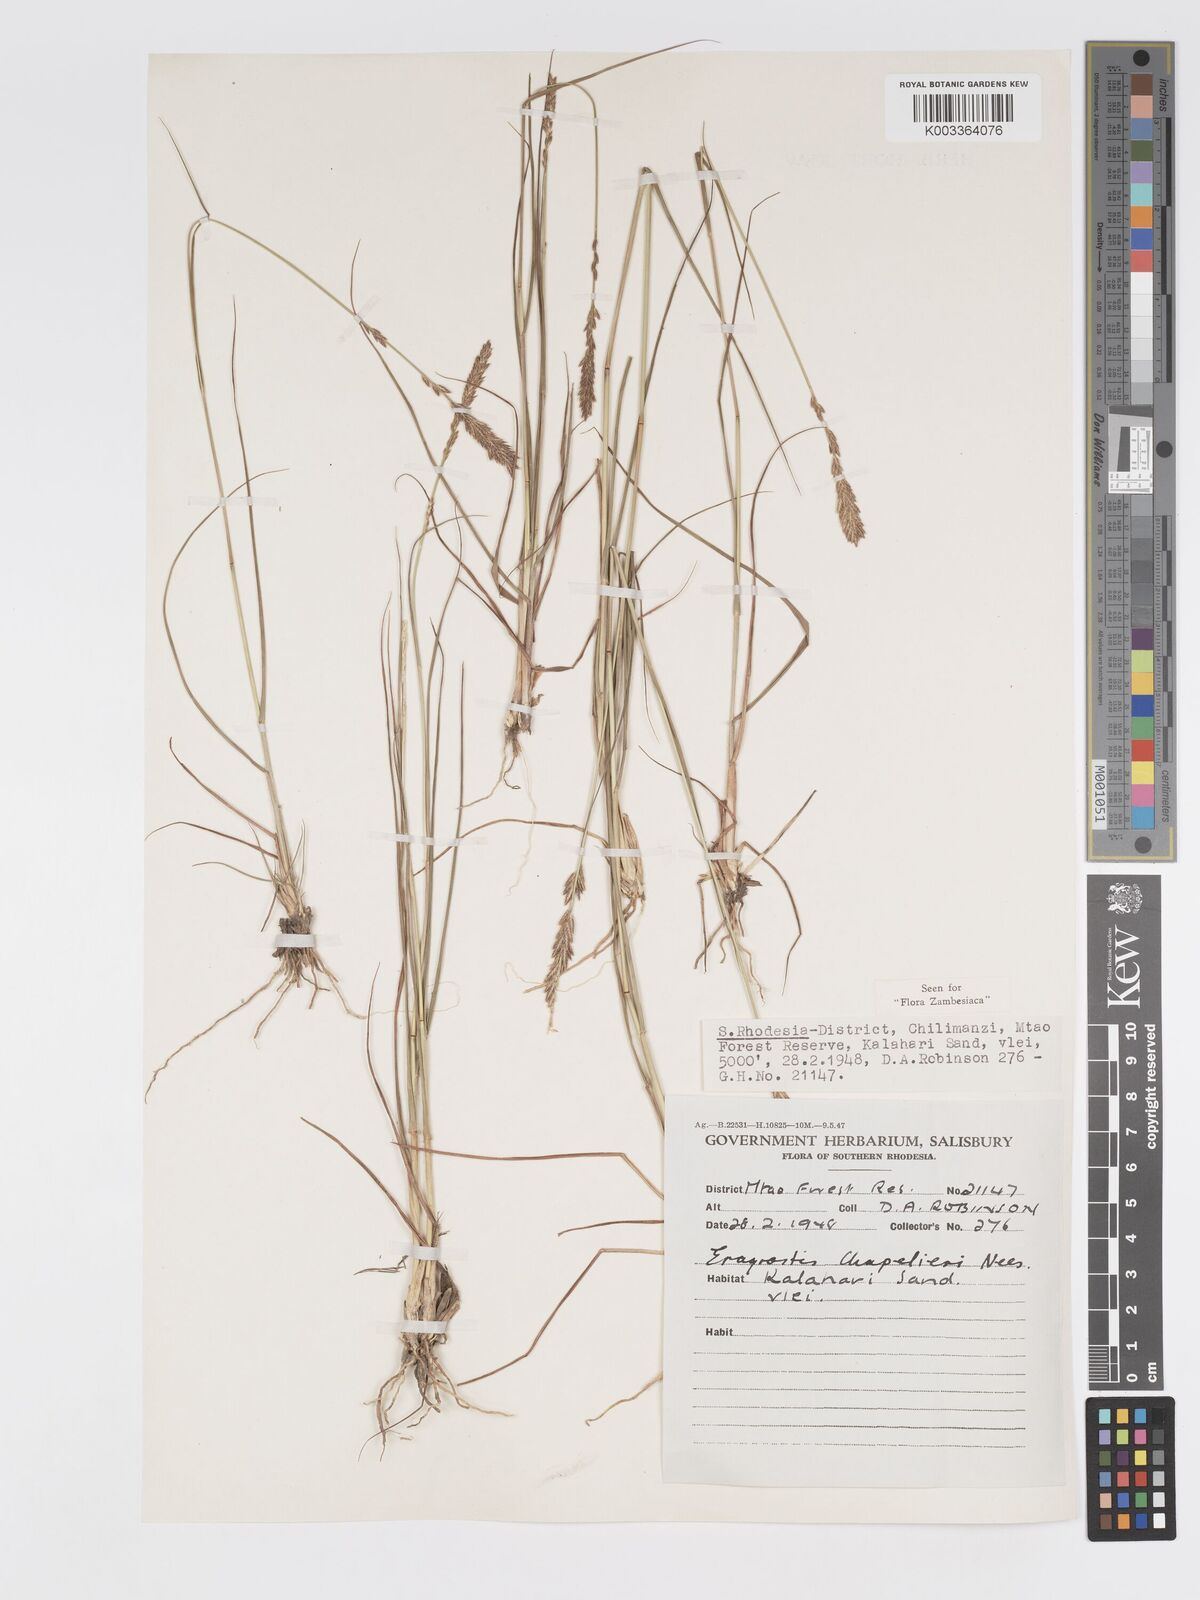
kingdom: Plantae
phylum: Tracheophyta
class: Liliopsida
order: Poales
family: Poaceae
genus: Eragrostis
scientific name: Eragrostis chapelieri
